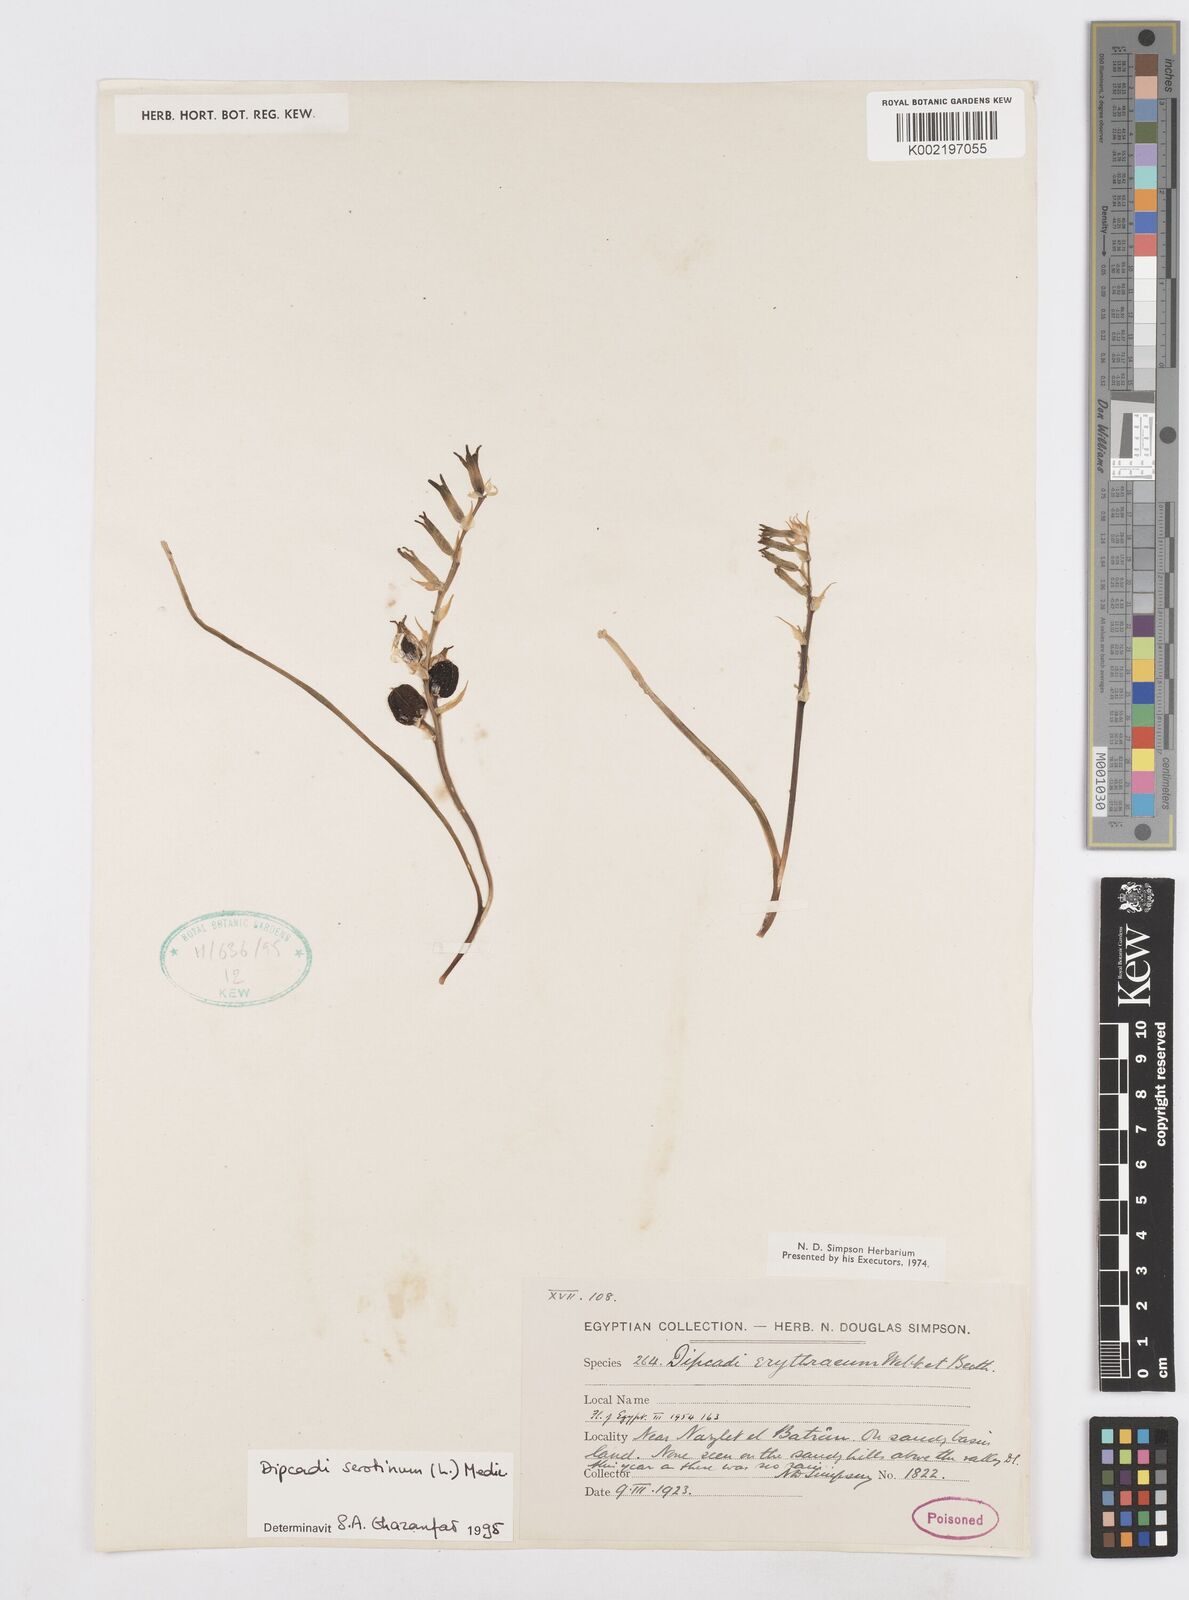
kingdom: Plantae
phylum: Tracheophyta
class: Liliopsida
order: Asparagales
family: Asparagaceae
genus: Dipcadi
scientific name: Dipcadi serotinum
